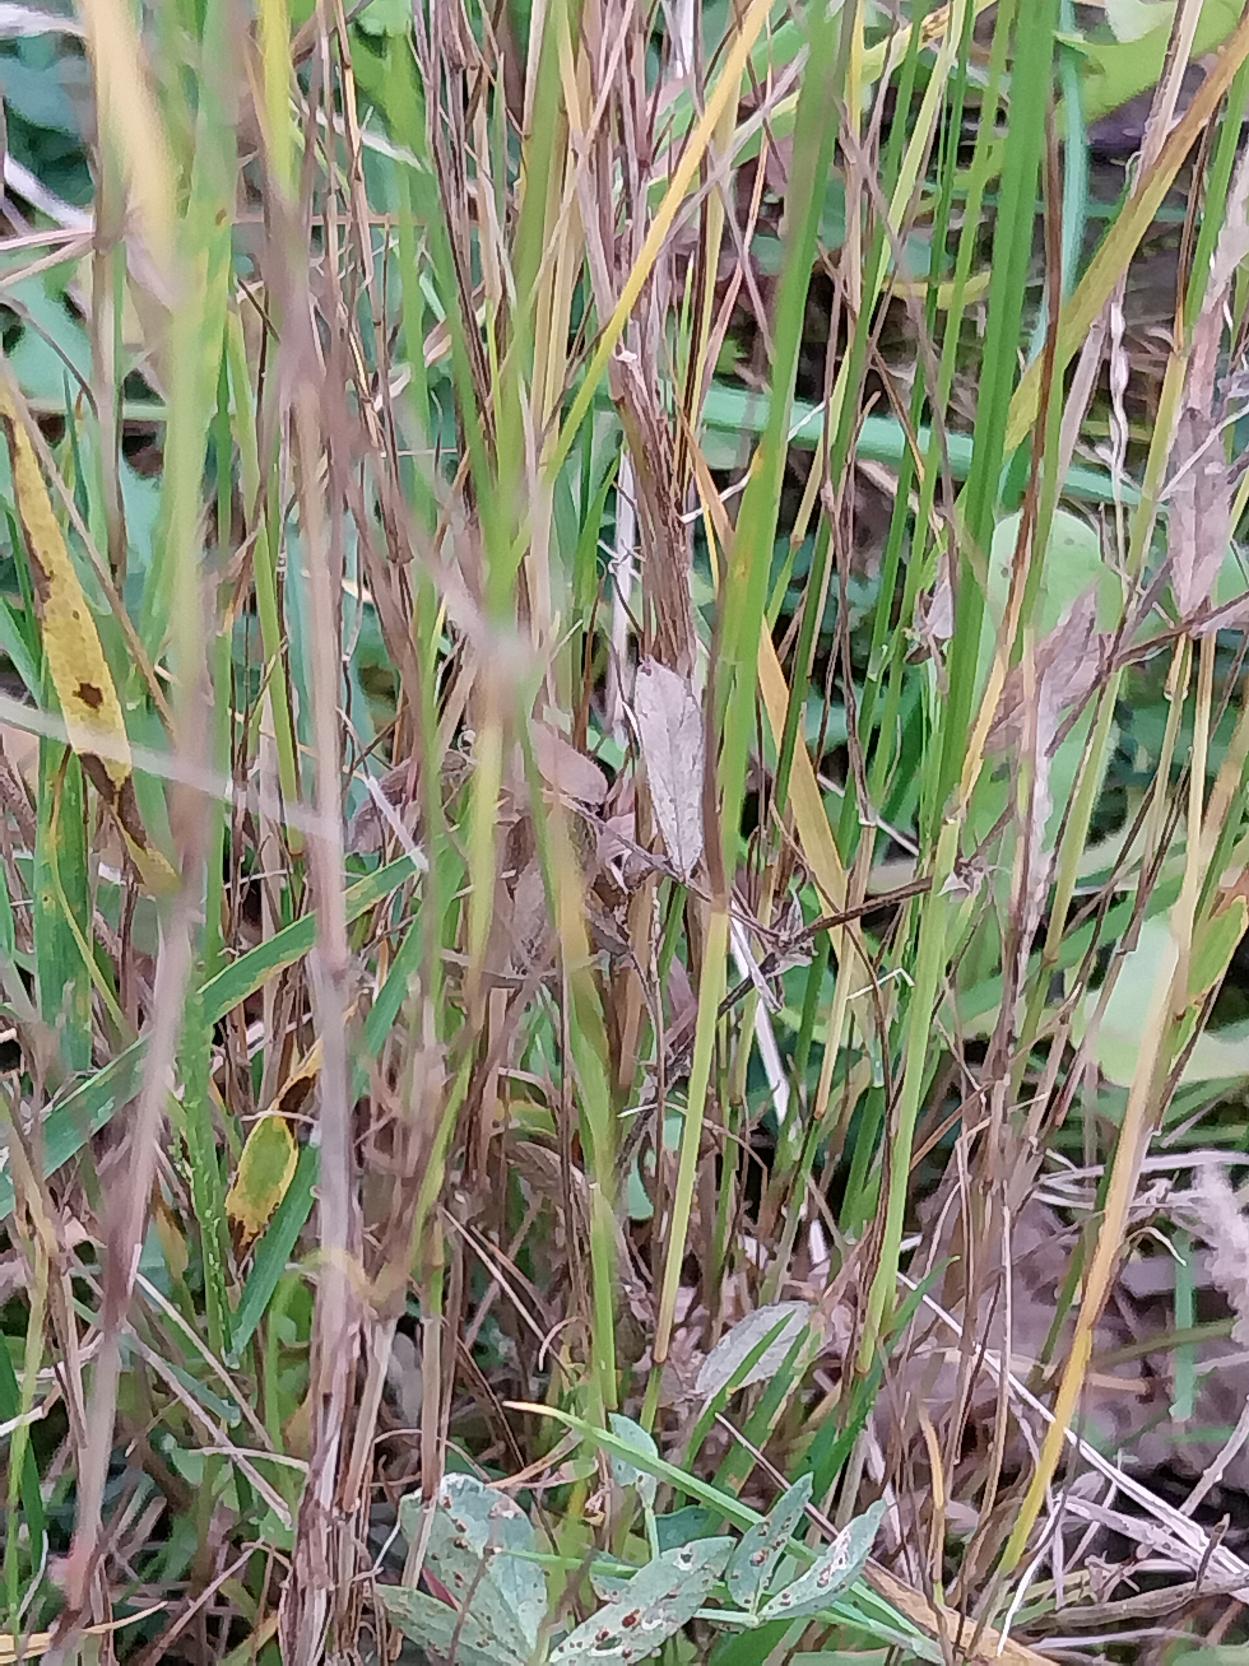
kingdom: Plantae
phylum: Tracheophyta
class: Liliopsida
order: Poales
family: Poaceae
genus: Agrostis
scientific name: Agrostis capillaris
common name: Almindelig hvene
